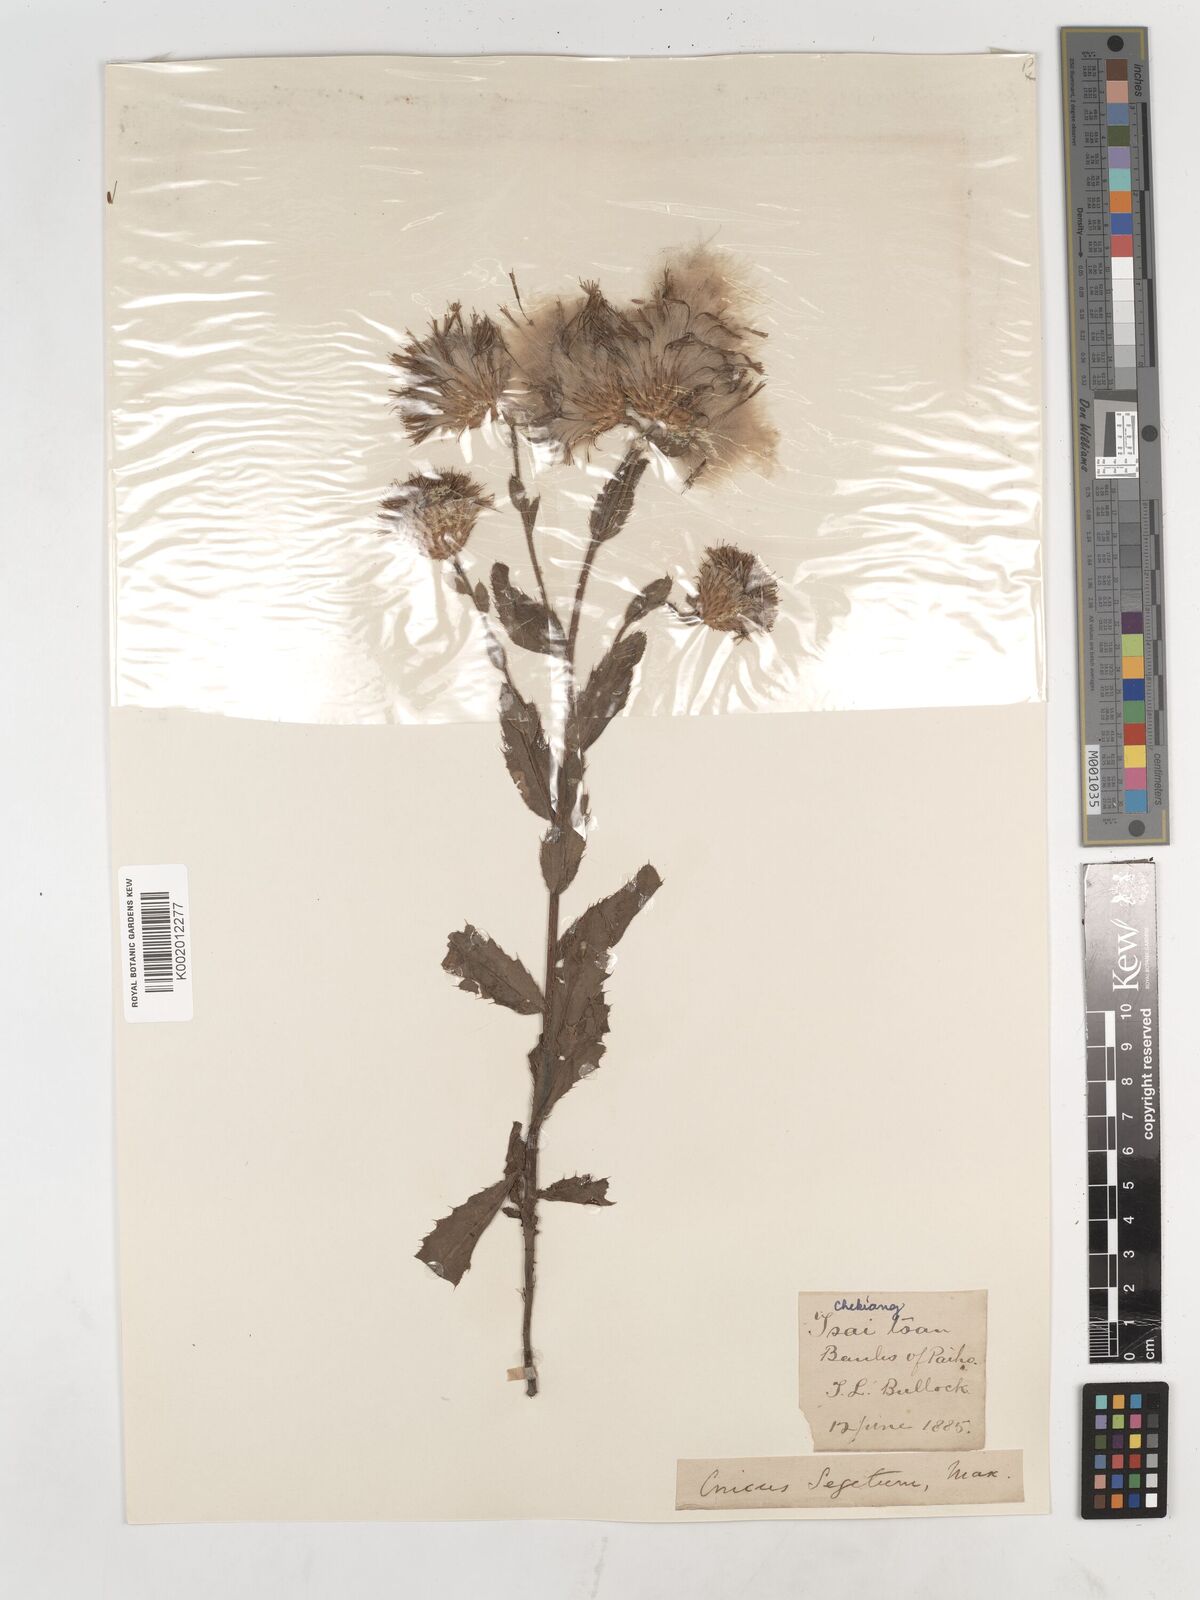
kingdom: Plantae
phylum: Tracheophyta
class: Magnoliopsida
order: Asterales
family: Asteraceae
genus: Cirsium
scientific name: Cirsium arvense
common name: Creeping thistle
